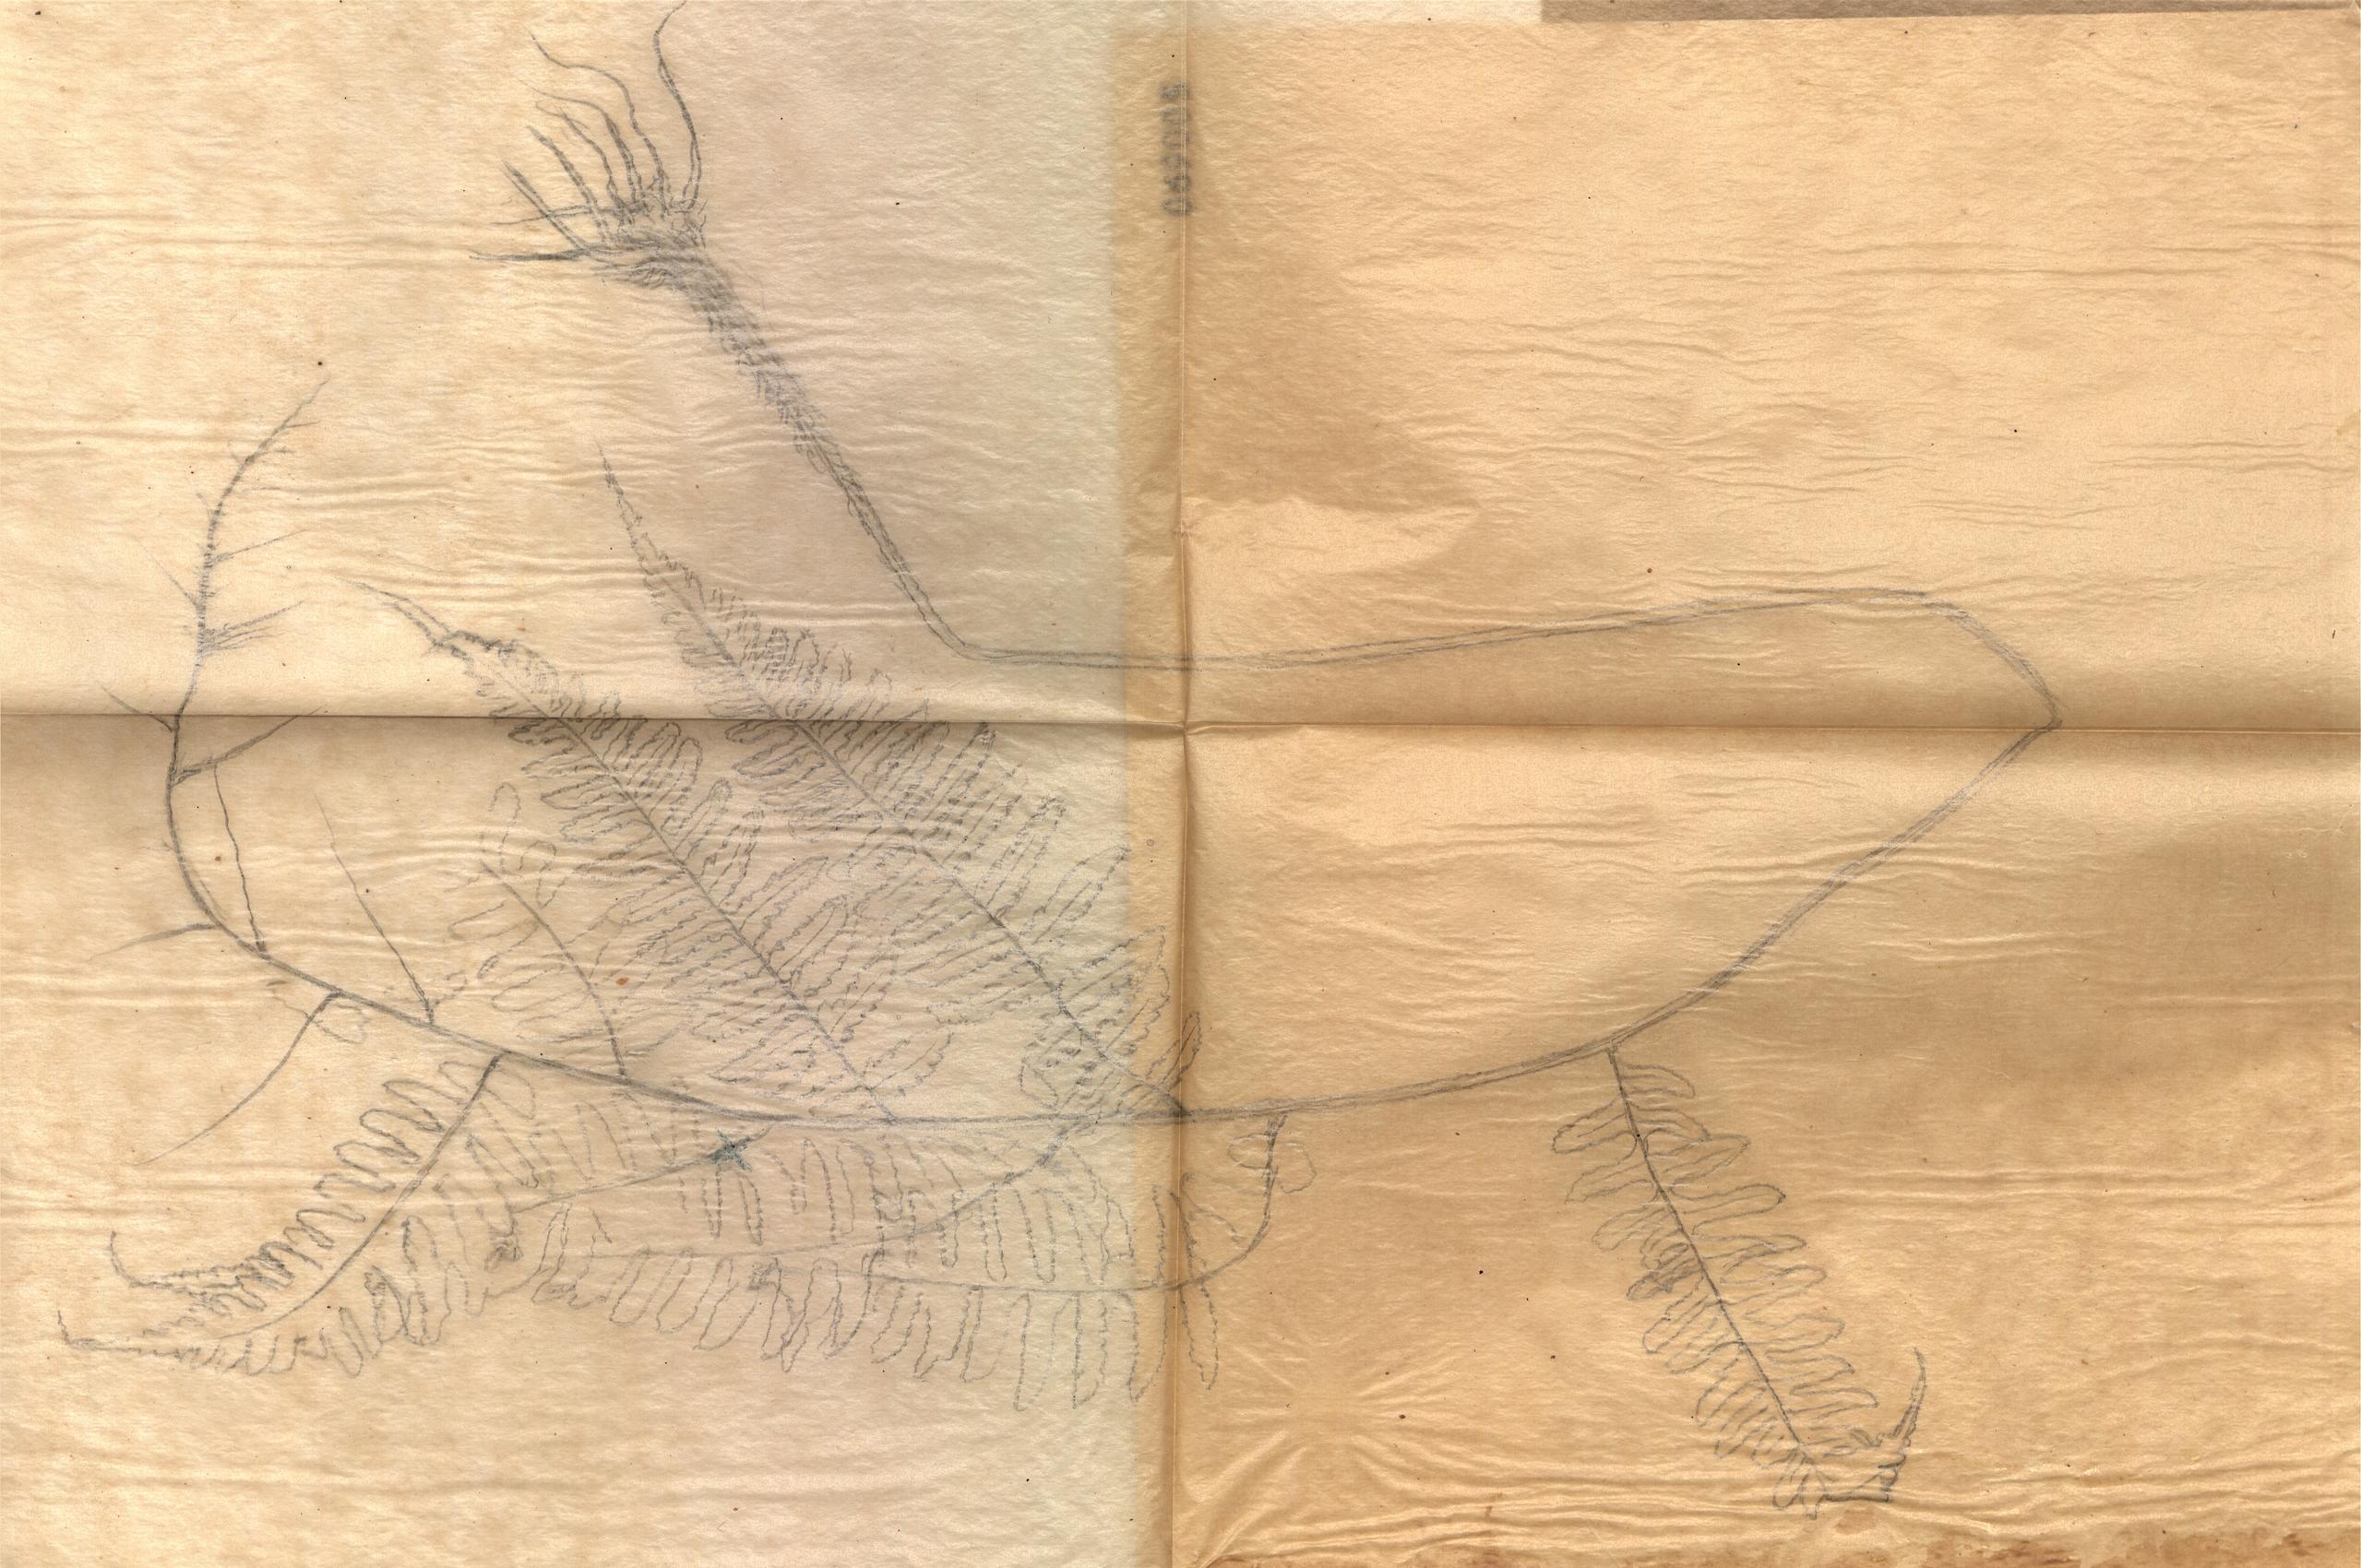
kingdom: Plantae
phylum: Tracheophyta
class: Polypodiopsida
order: Polypodiales
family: Athyriaceae
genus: Diplazium
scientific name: Diplazium uncidens
